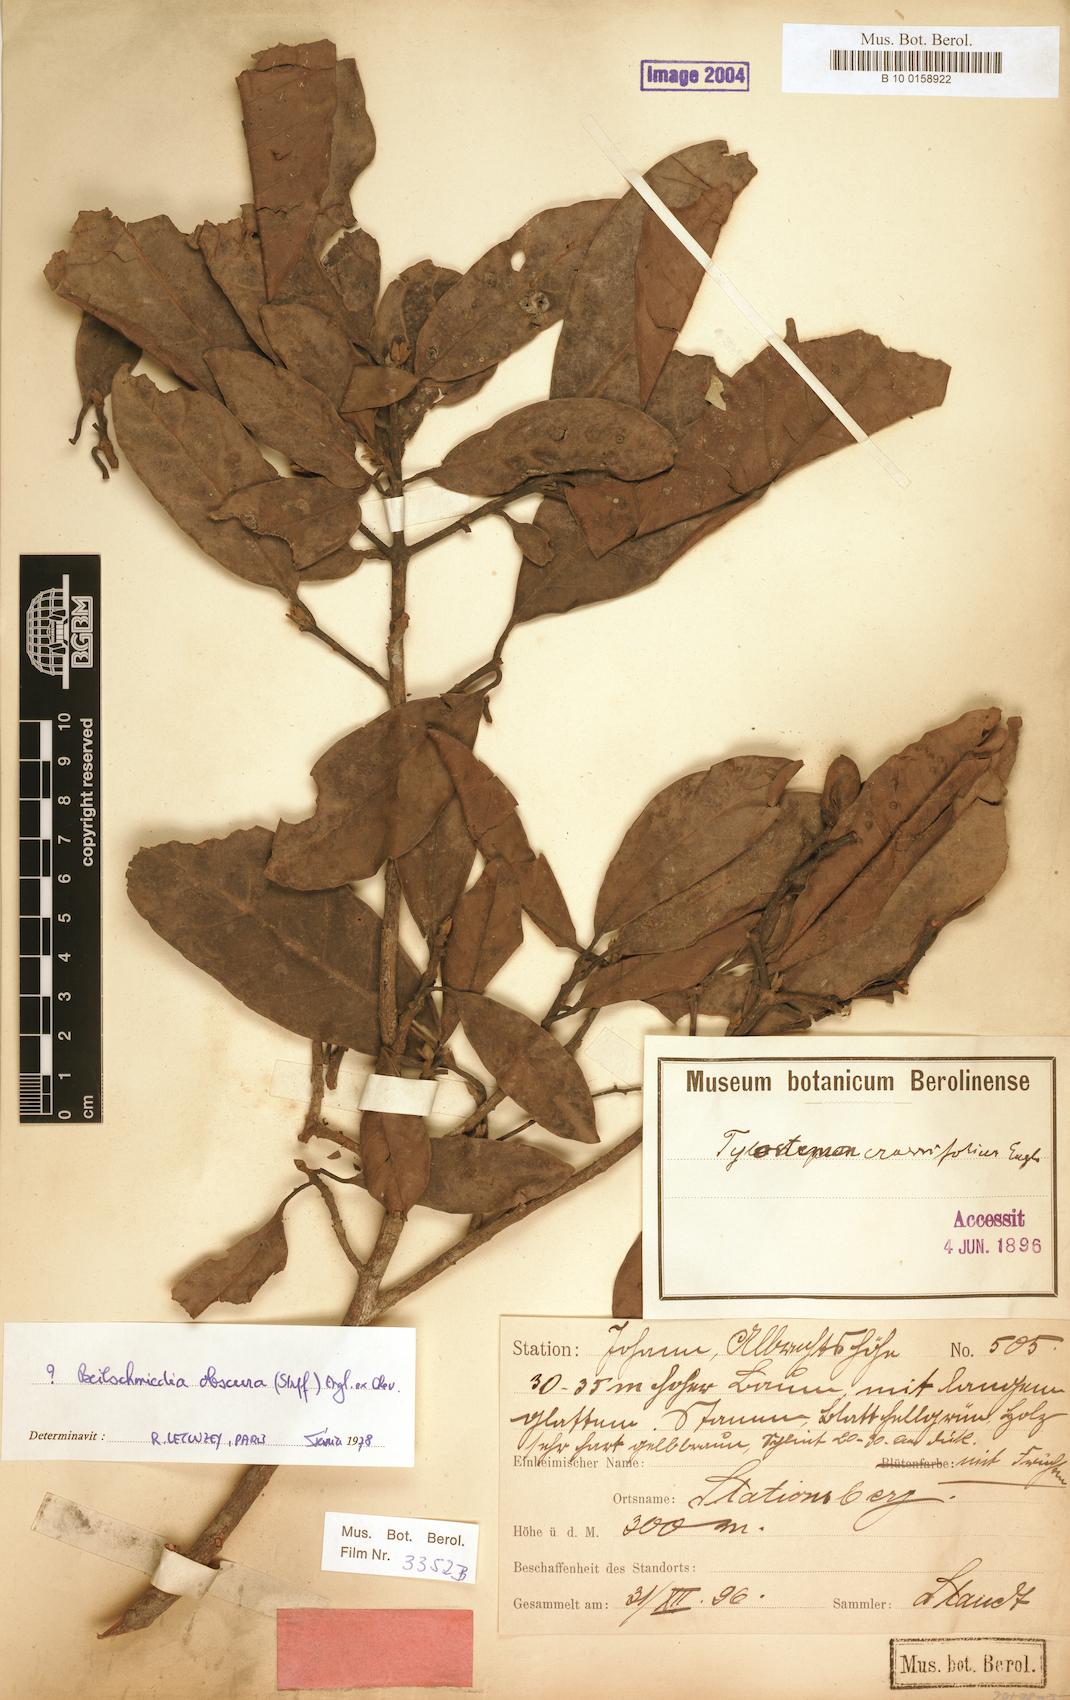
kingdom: Plantae
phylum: Tracheophyta
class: Magnoliopsida
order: Laurales
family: Lauraceae
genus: Beilschmiedia
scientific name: Beilschmiedia gaboonensis
